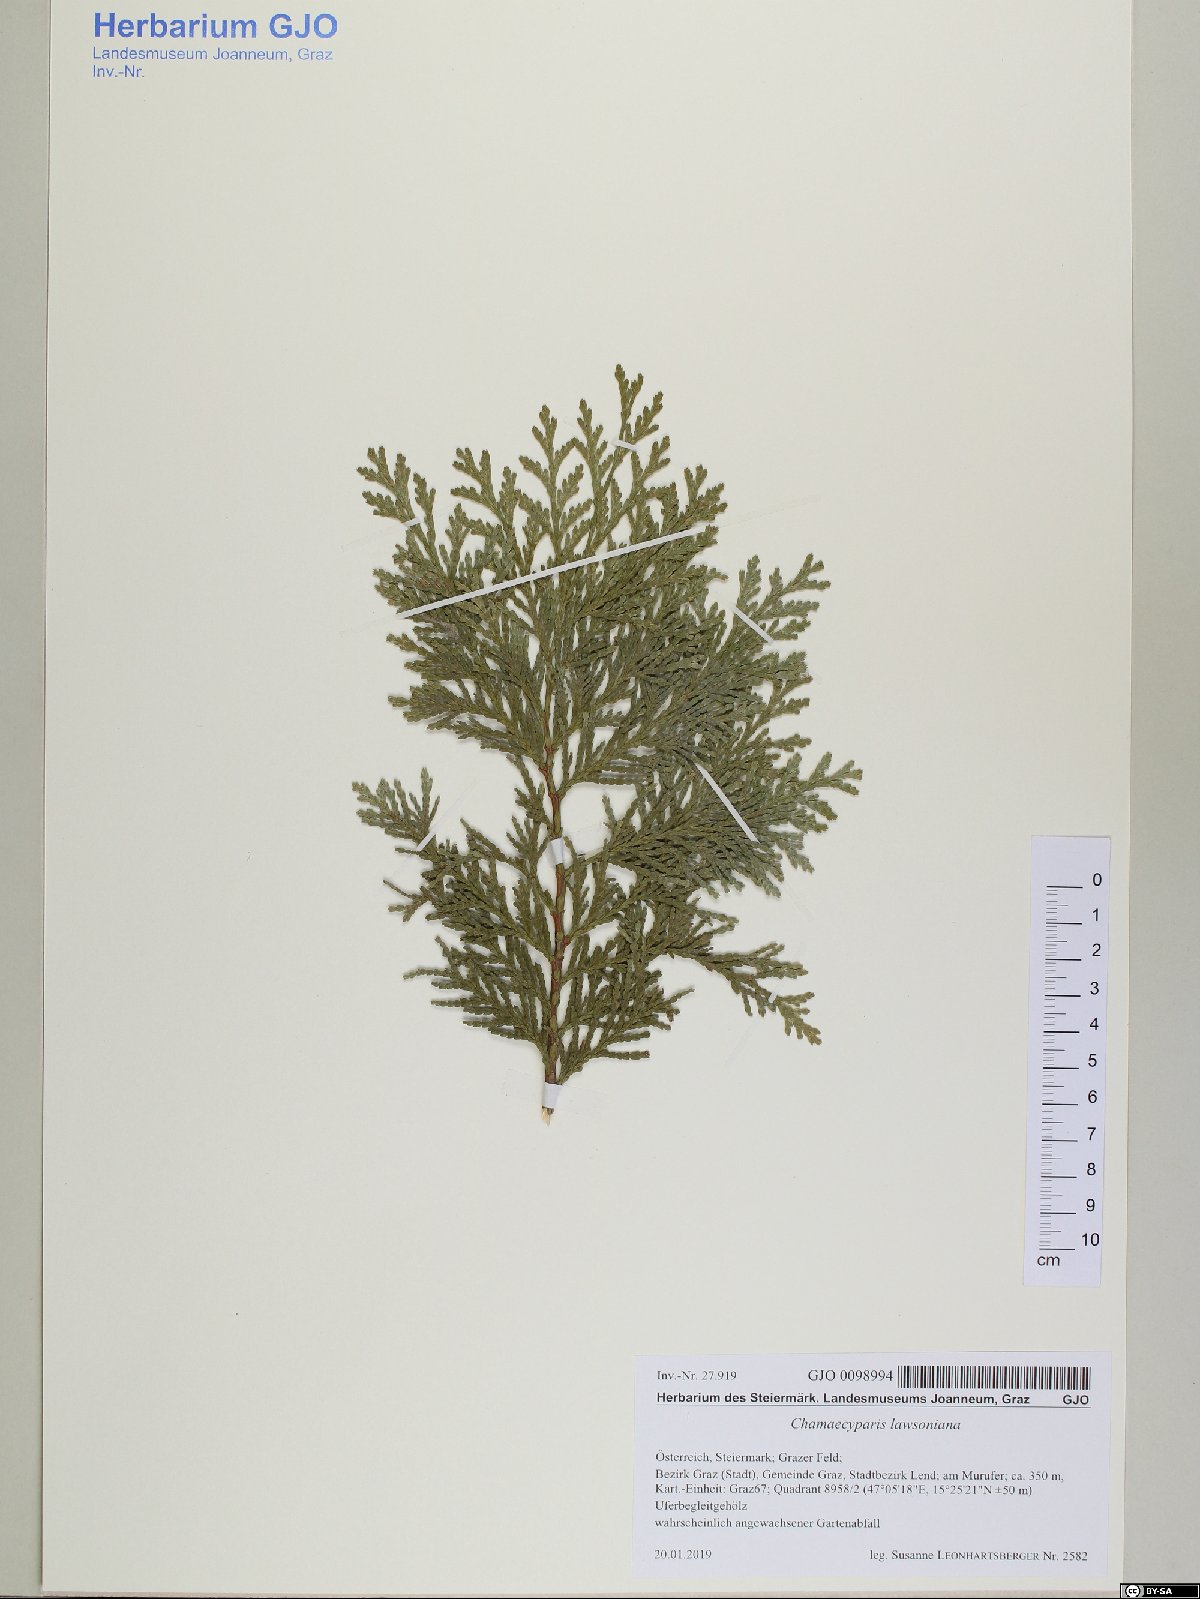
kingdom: Plantae
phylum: Tracheophyta
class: Pinopsida
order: Pinales
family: Cupressaceae
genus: Chamaecyparis
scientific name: Chamaecyparis lawsoniana
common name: Lawson's cypress
